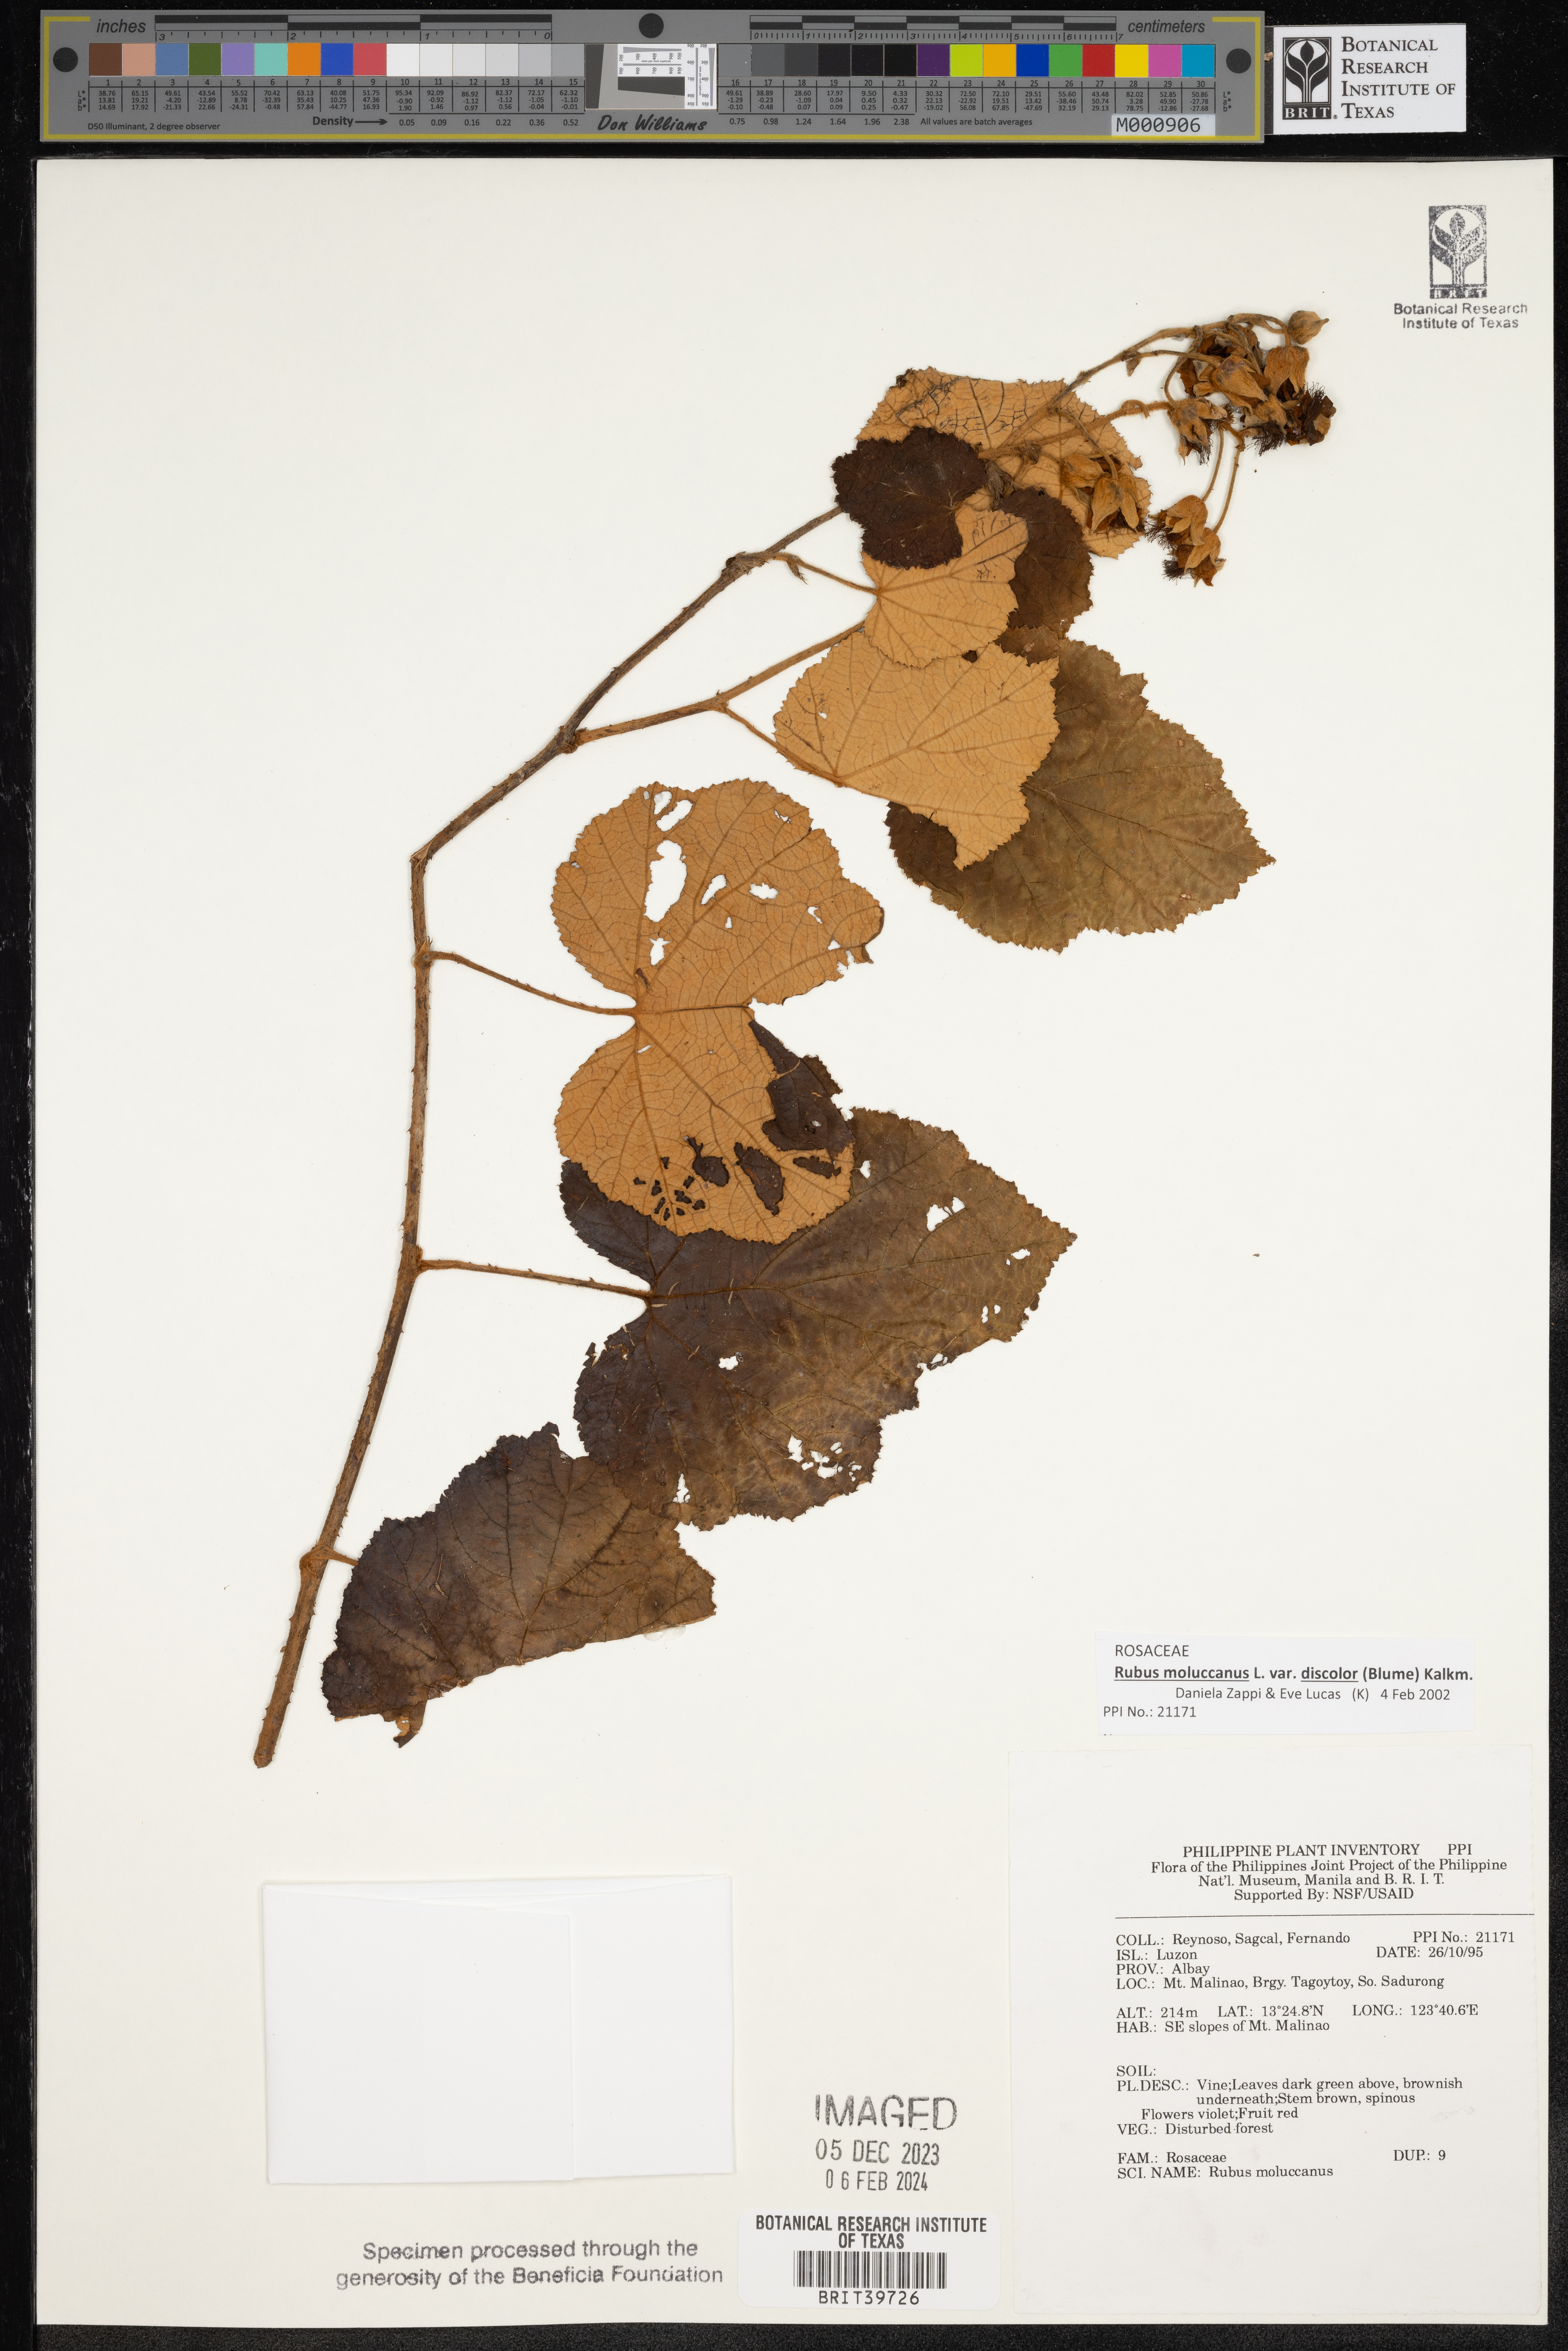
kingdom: Plantae
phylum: Tracheophyta
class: Magnoliopsida
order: Rosales
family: Rosaceae
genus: Rubus
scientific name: Rubus moluccanus
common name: Wild raspberry
